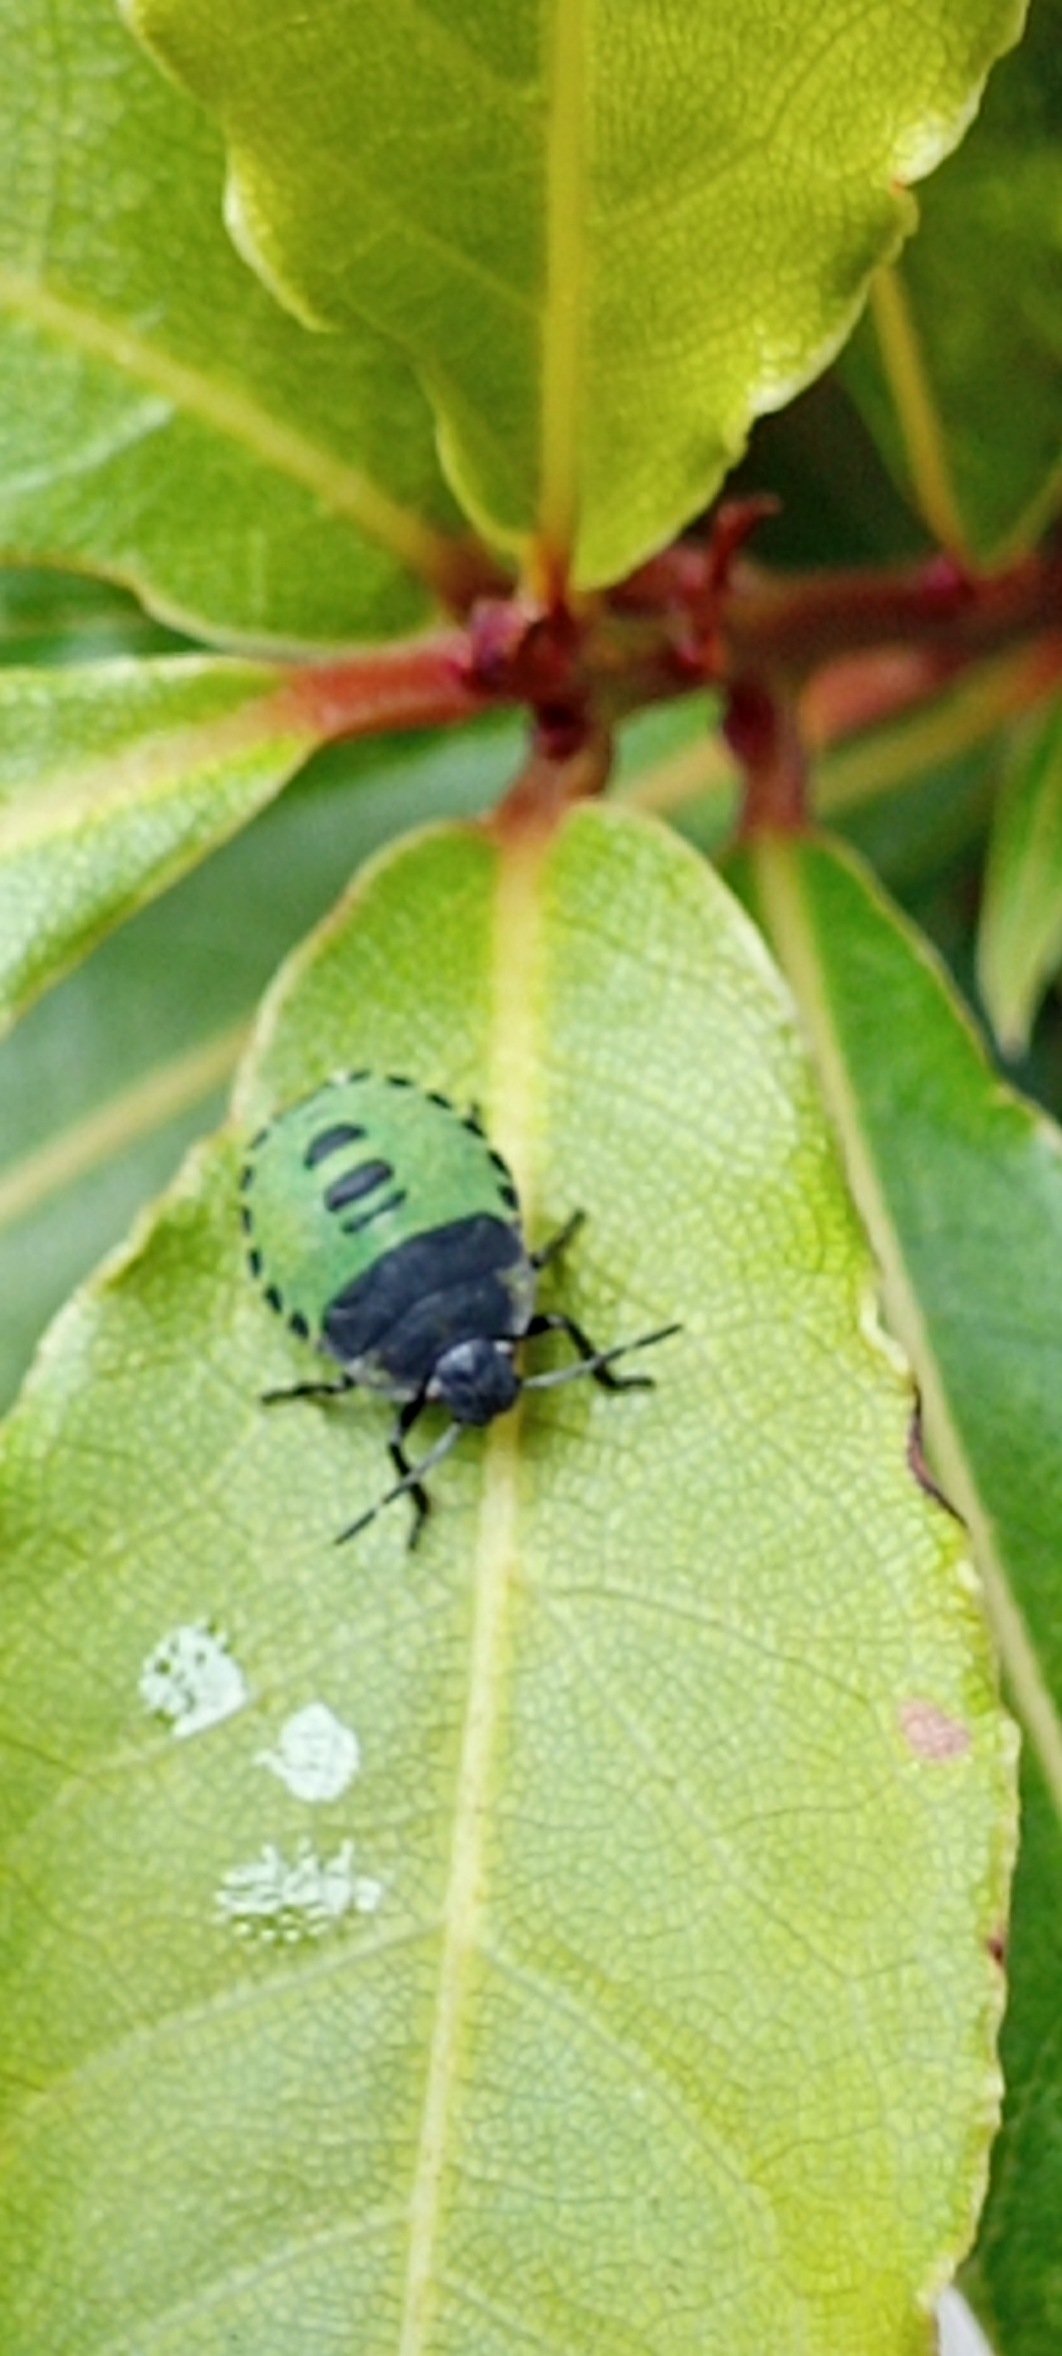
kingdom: Animalia
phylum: Arthropoda
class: Insecta
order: Hemiptera
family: Pentatomidae
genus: Palomena
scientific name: Palomena prasina
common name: Grøn bredtæge
